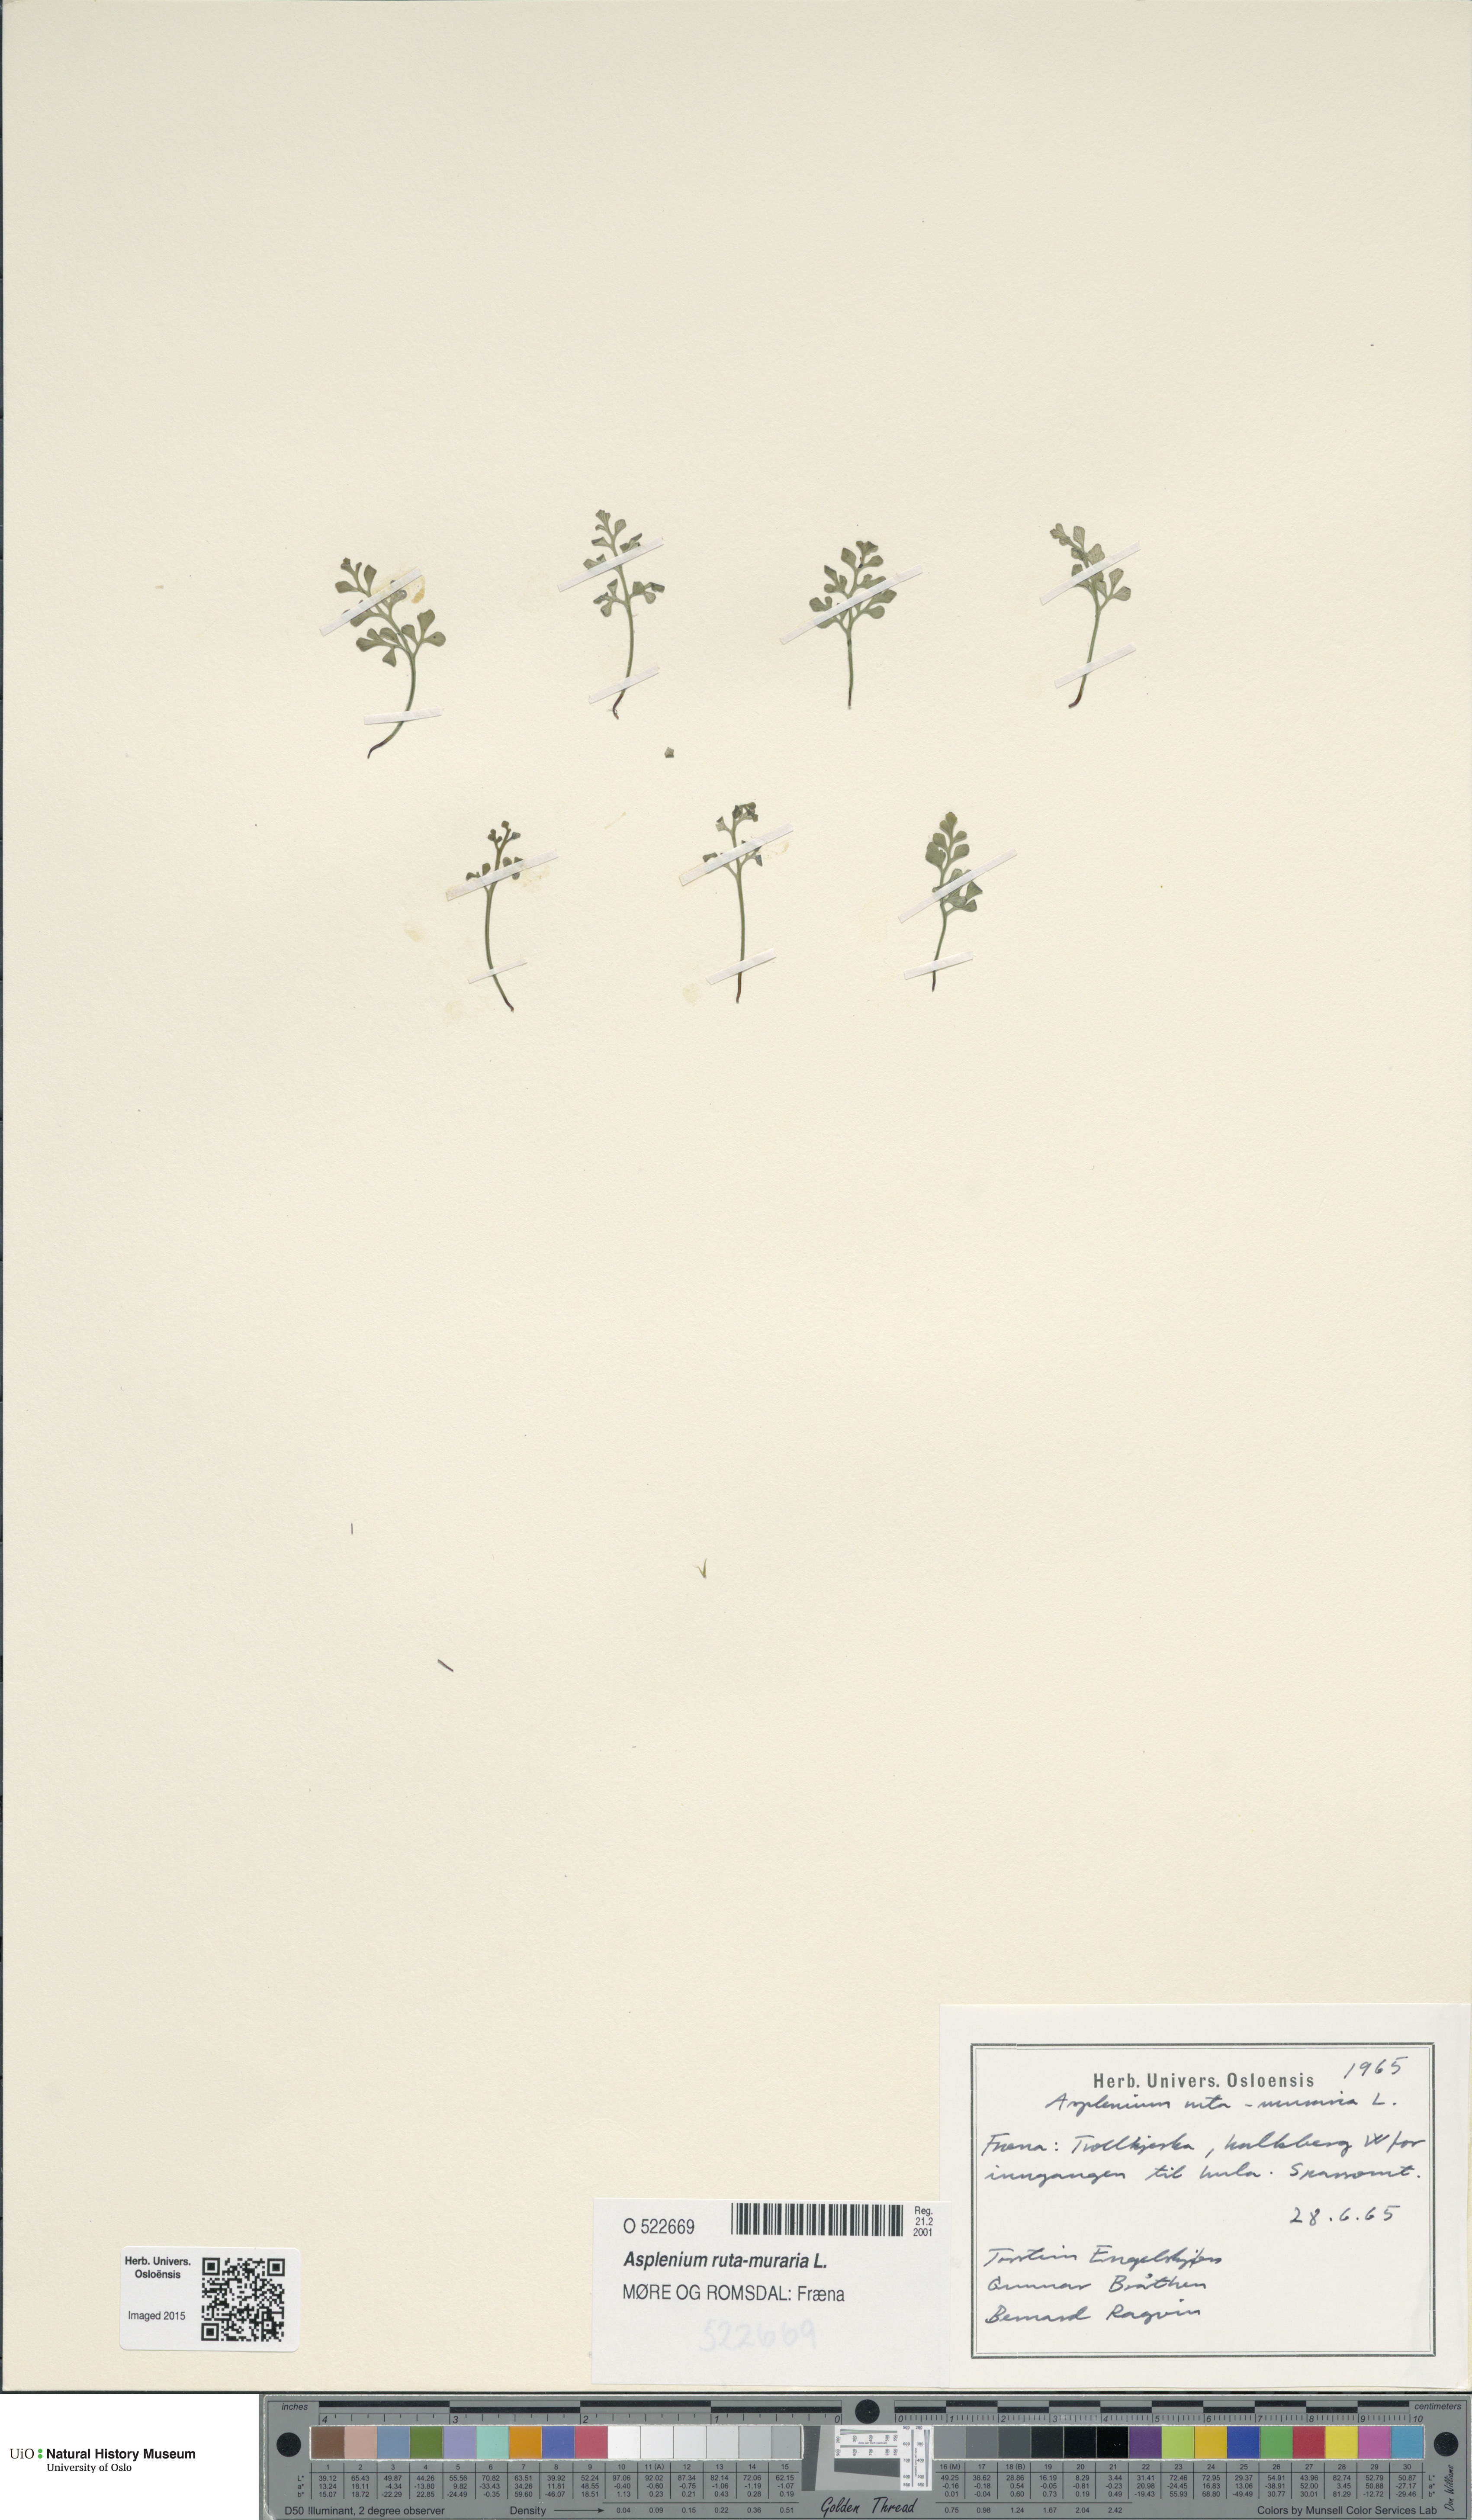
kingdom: Plantae
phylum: Tracheophyta
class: Polypodiopsida
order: Polypodiales
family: Aspleniaceae
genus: Asplenium
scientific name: Asplenium ruta-muraria
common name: Wall-rue
